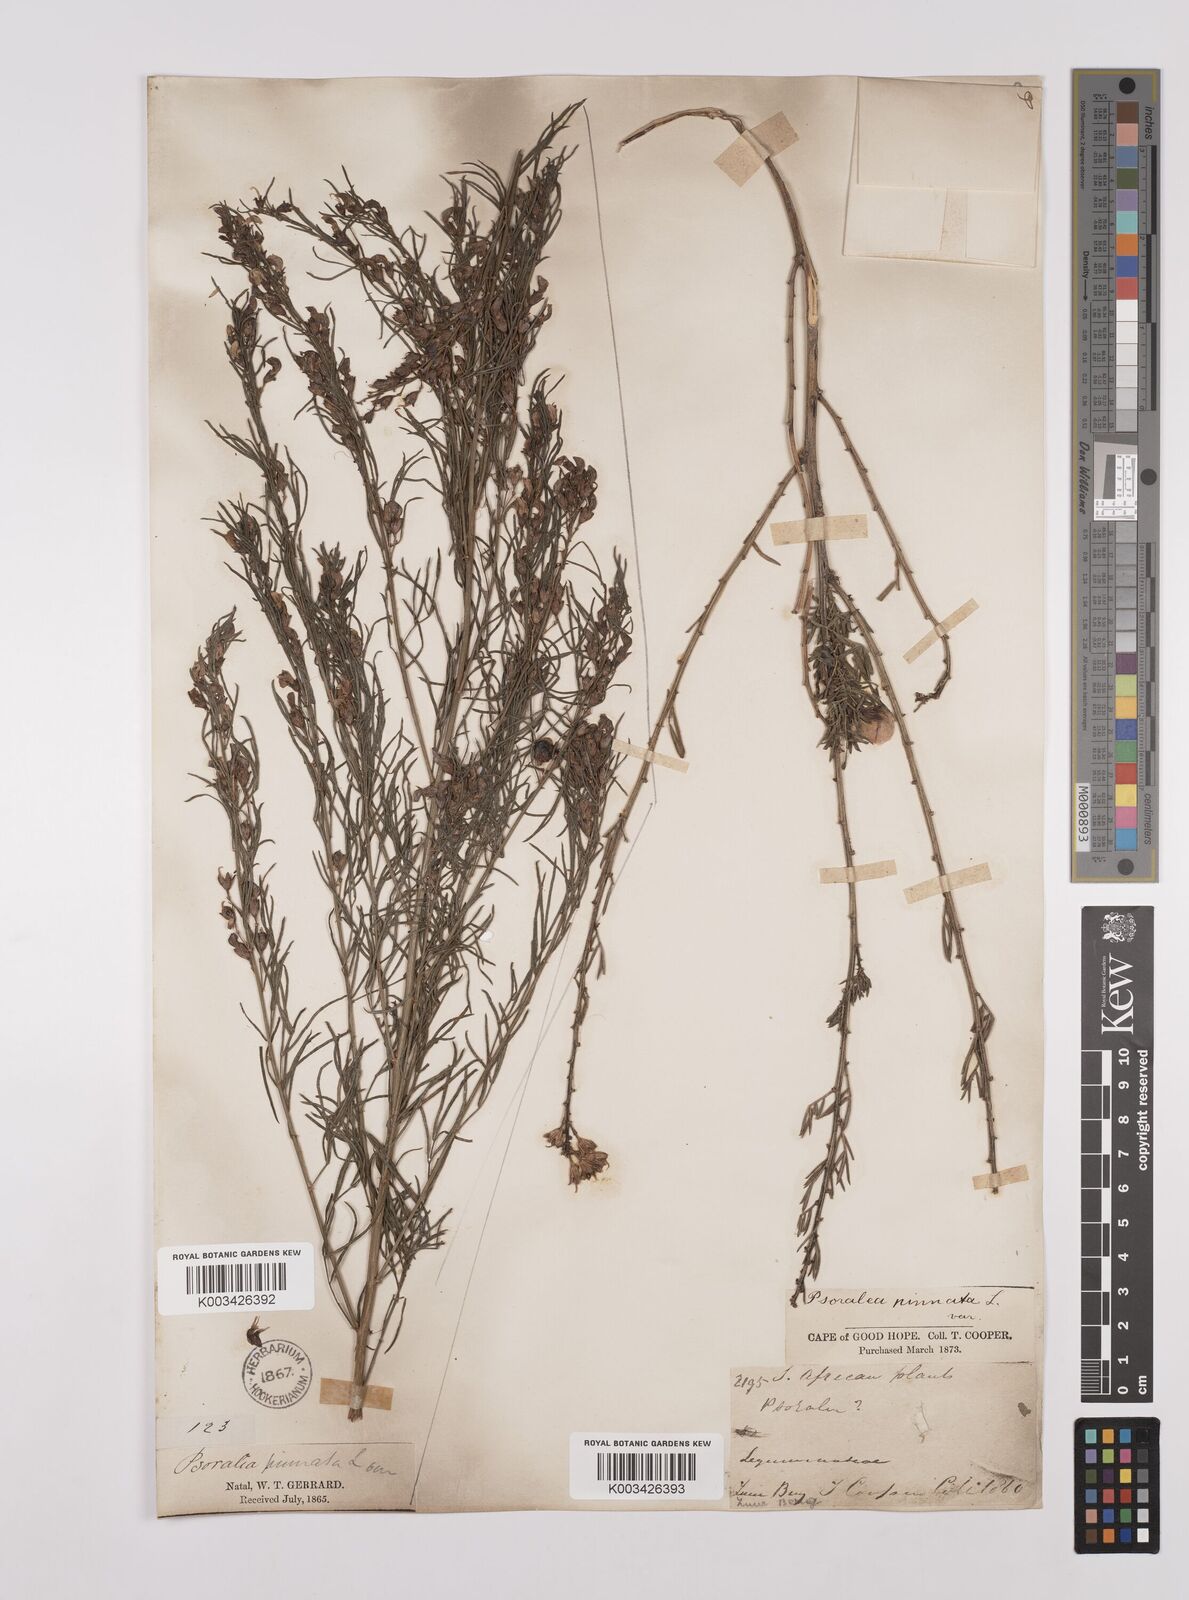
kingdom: Plantae
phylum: Tracheophyta
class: Magnoliopsida
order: Fabales
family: Fabaceae
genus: Psoralea
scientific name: Psoralea rhizotoma
